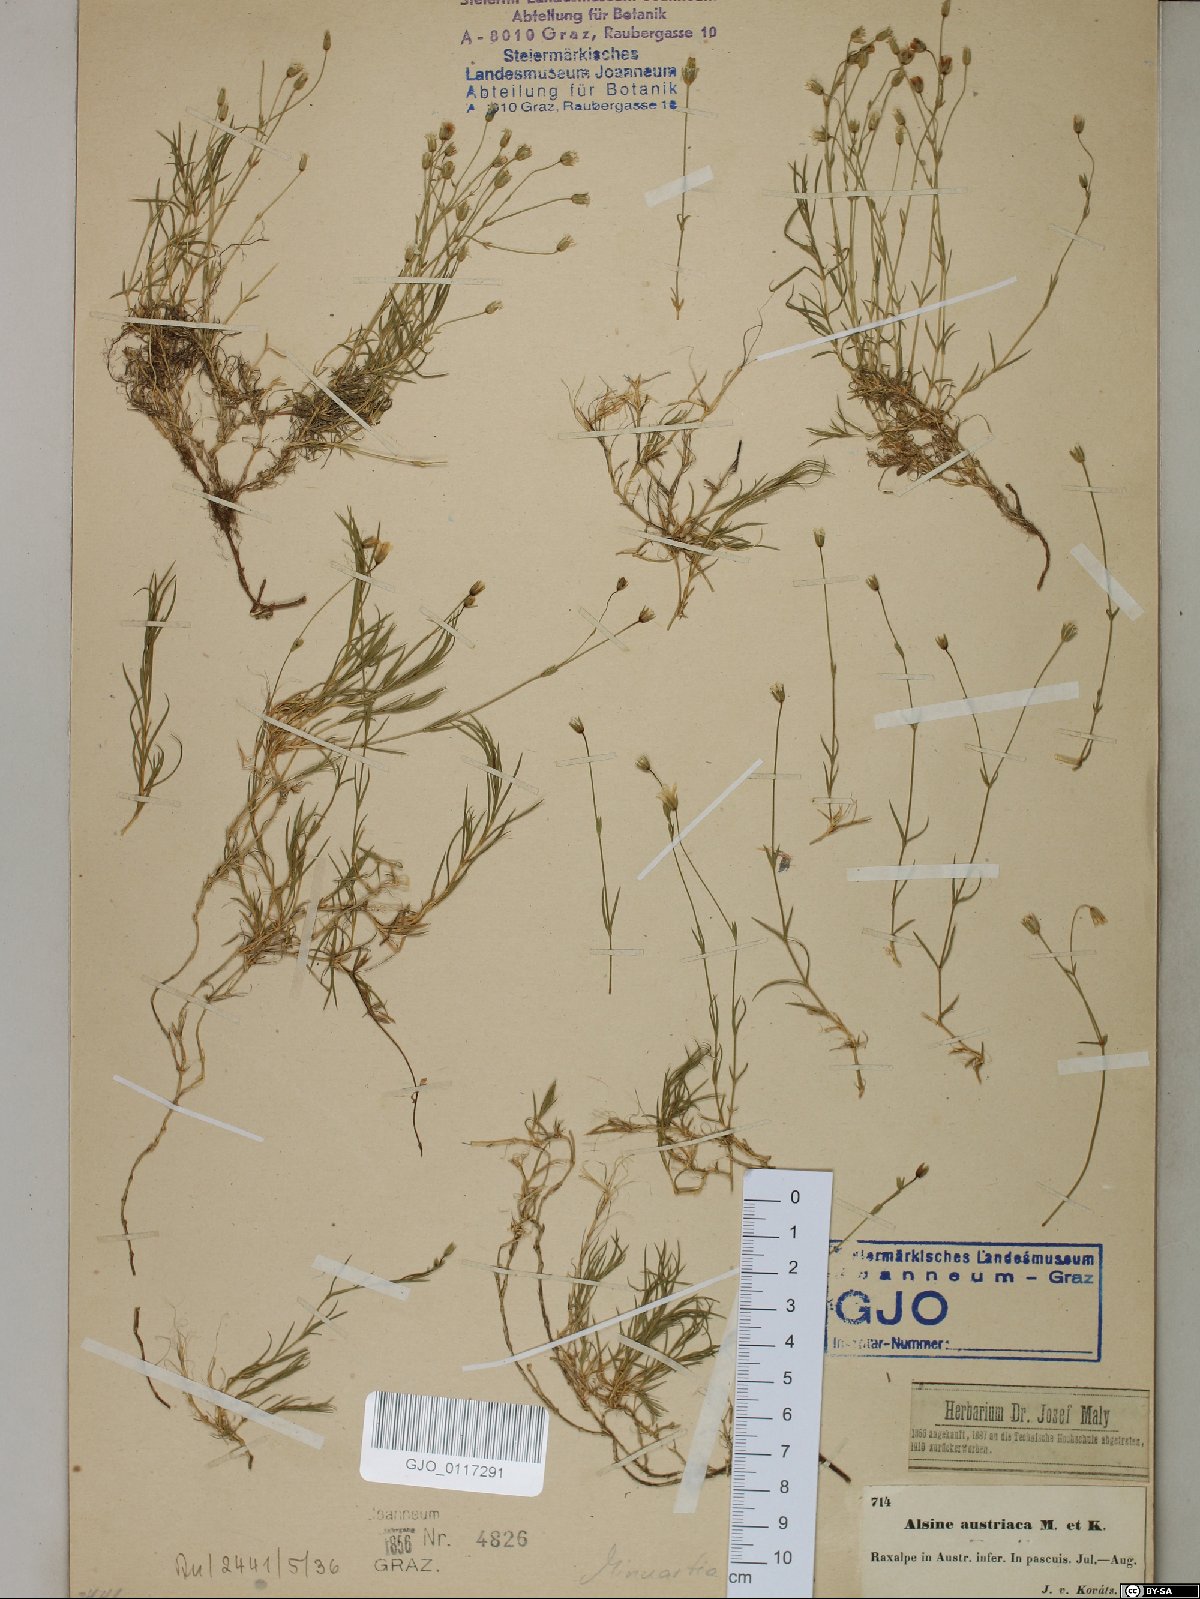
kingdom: Plantae
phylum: Tracheophyta
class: Magnoliopsida
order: Caryophyllales
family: Caryophyllaceae
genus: Sabulina
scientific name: Sabulina austriaca
